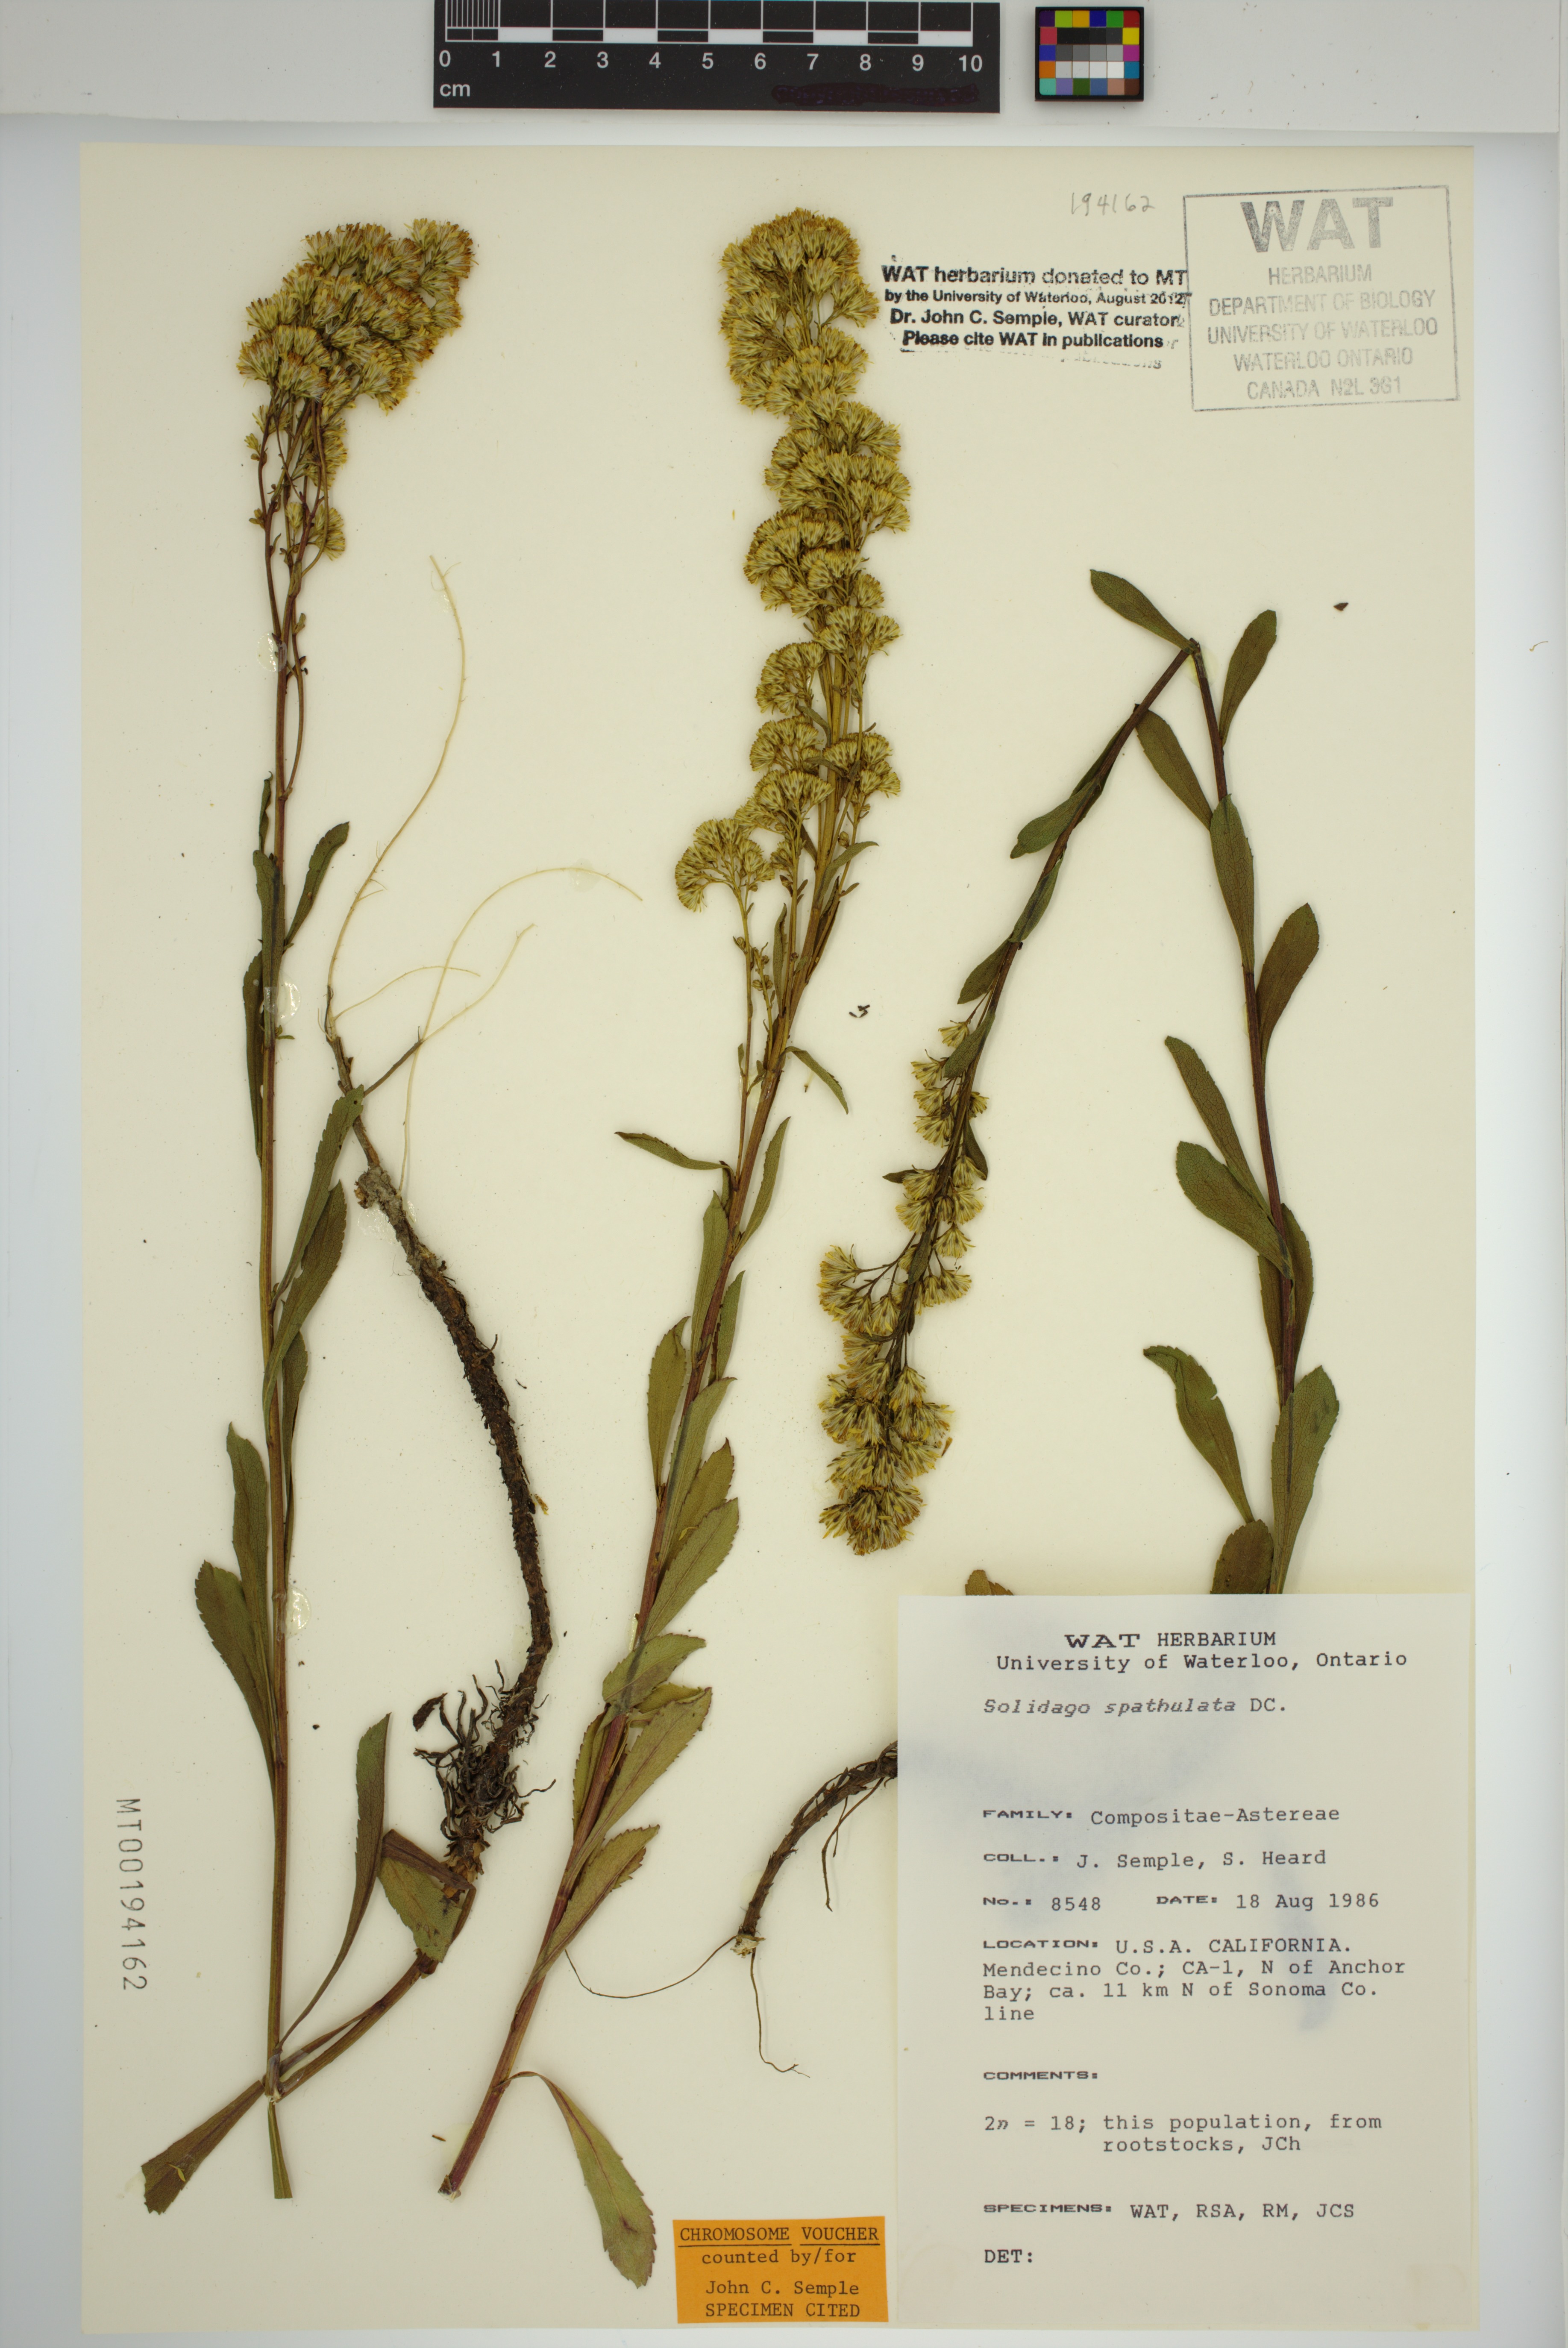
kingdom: Plantae
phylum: Tracheophyta
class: Magnoliopsida
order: Asterales
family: Asteraceae
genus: Solidago
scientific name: Solidago spathulata
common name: Coast goldenrod
